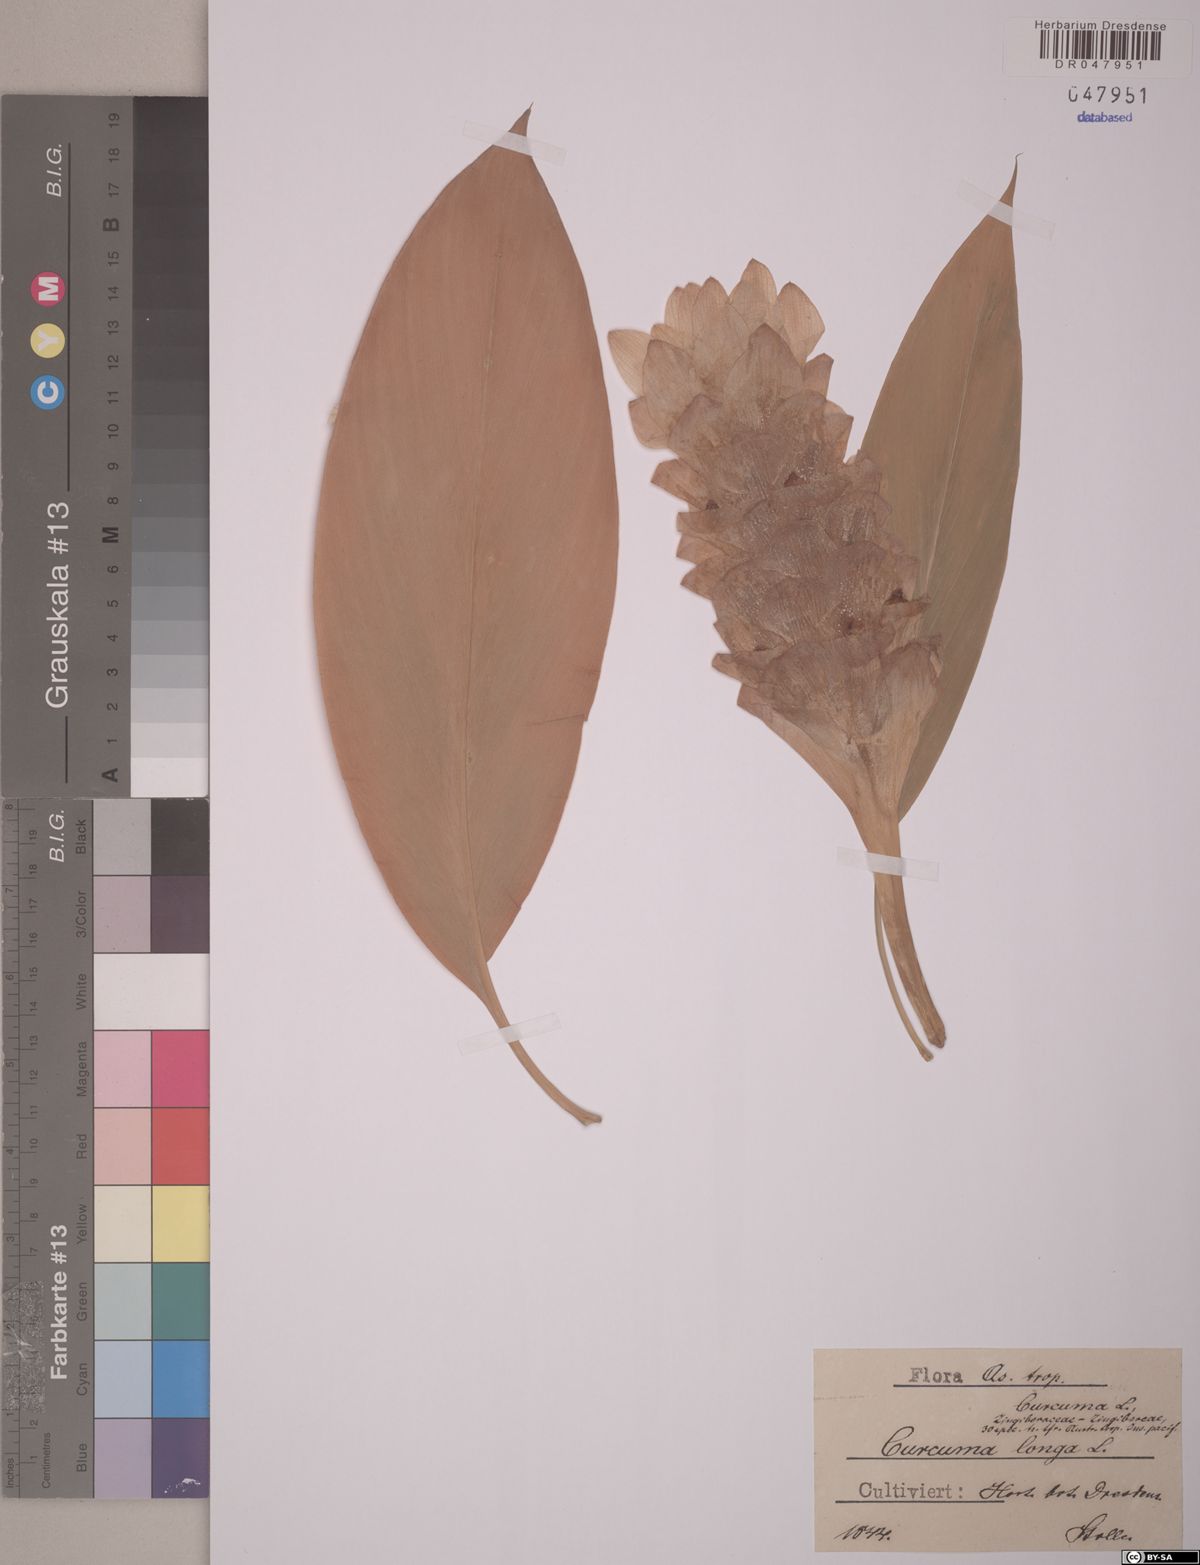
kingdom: Plantae
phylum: Tracheophyta
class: Liliopsida
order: Zingiberales
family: Zingiberaceae
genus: Curcuma
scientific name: Curcuma longa
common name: Turmeric
